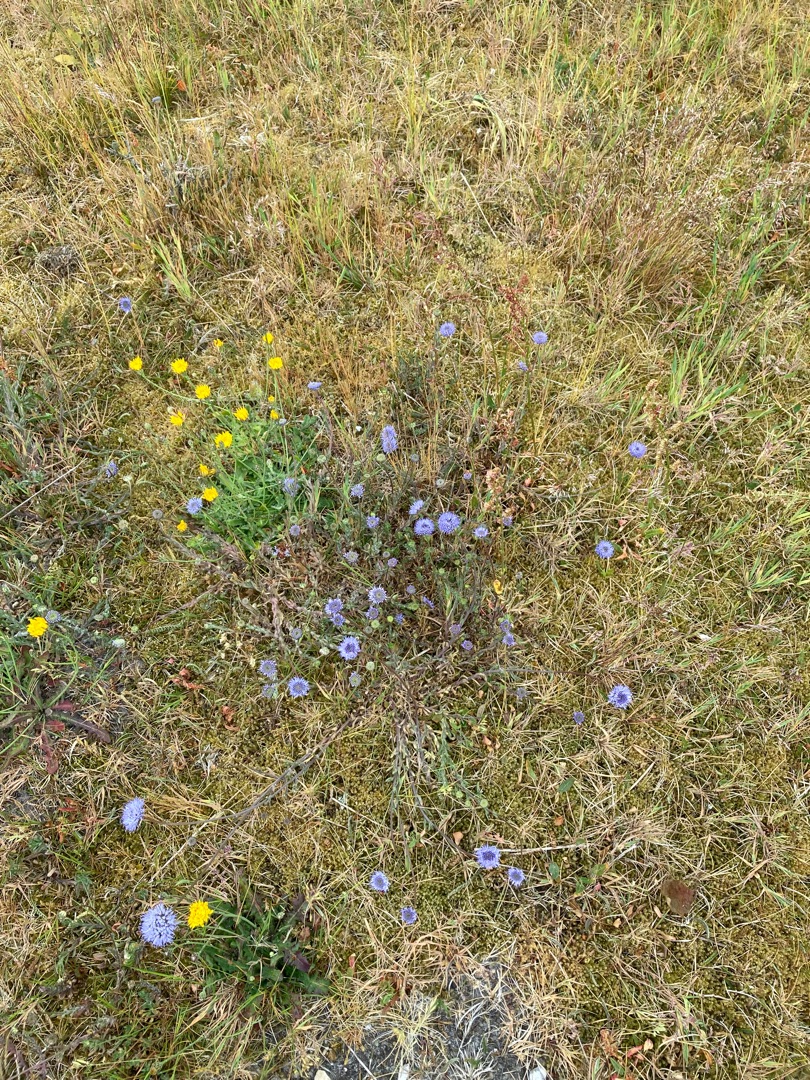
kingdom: Plantae
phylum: Tracheophyta
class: Magnoliopsida
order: Asterales
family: Campanulaceae
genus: Jasione
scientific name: Jasione montana
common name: Blåmunke
